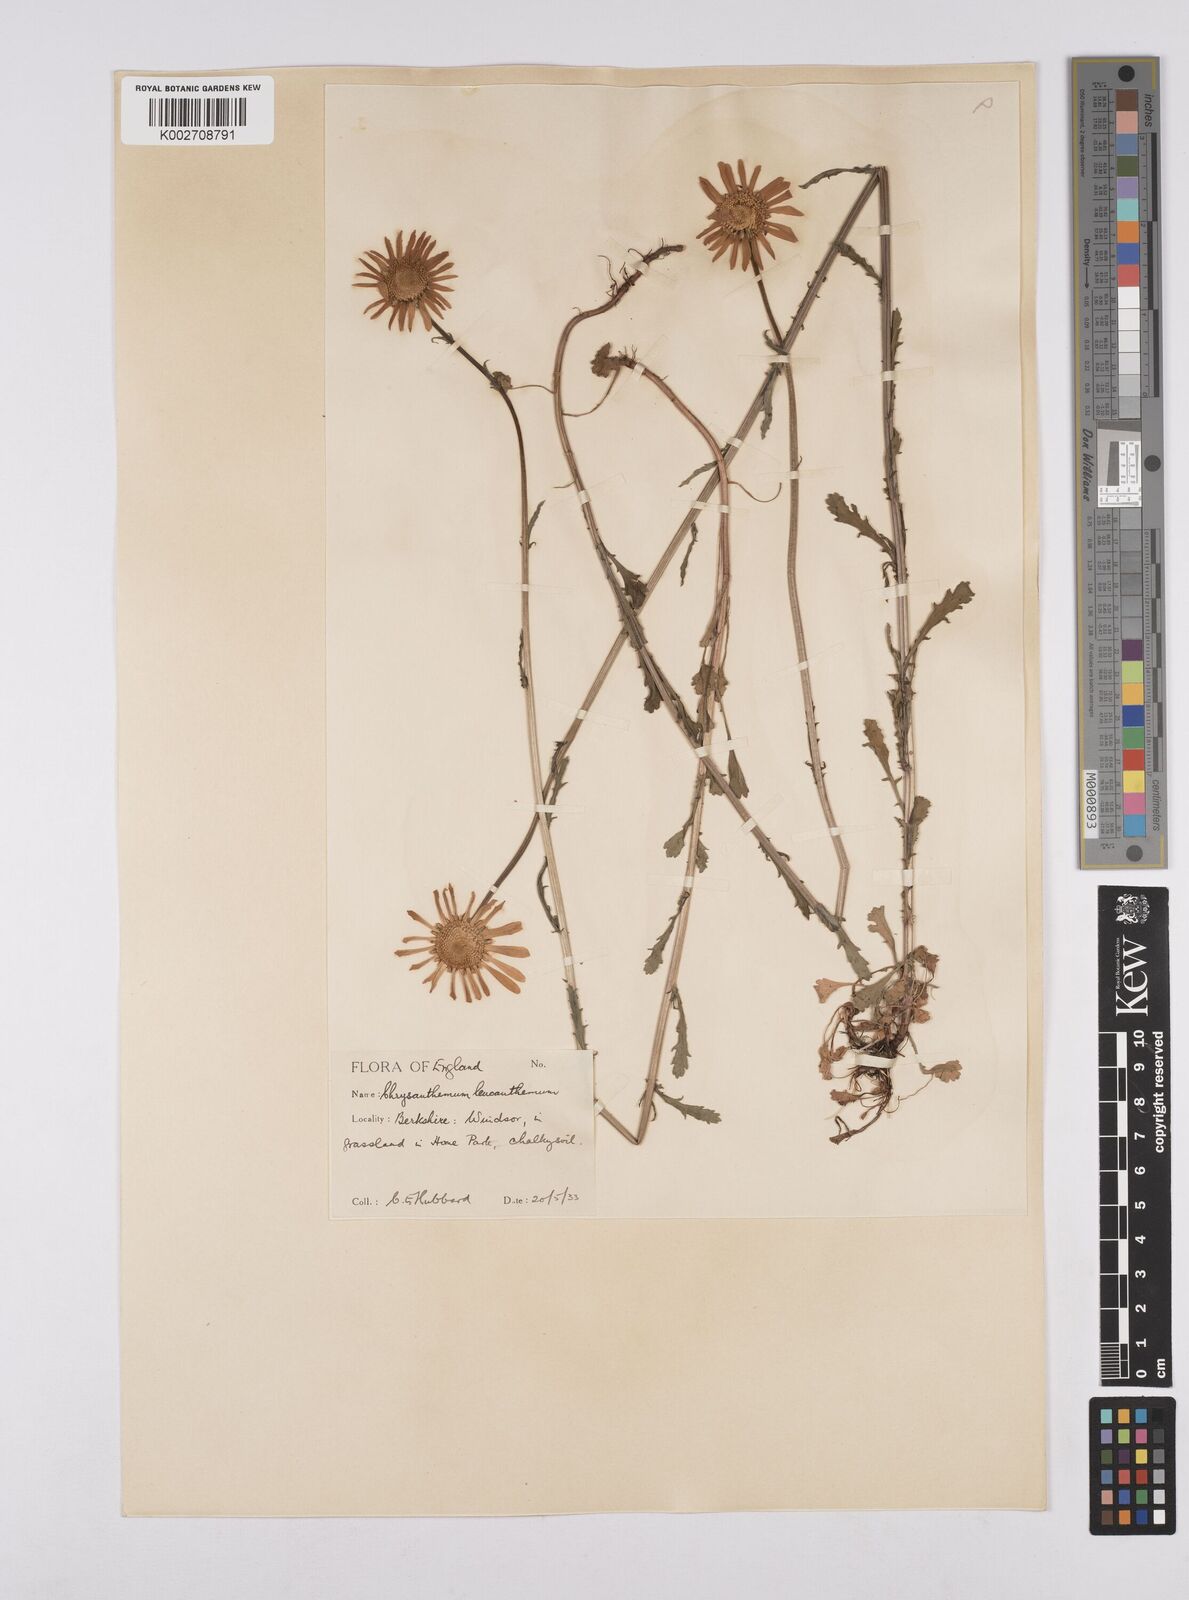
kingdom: Plantae
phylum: Tracheophyta
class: Magnoliopsida
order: Asterales
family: Asteraceae
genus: Leucanthemum
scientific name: Leucanthemum vulgare
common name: Oxeye daisy
